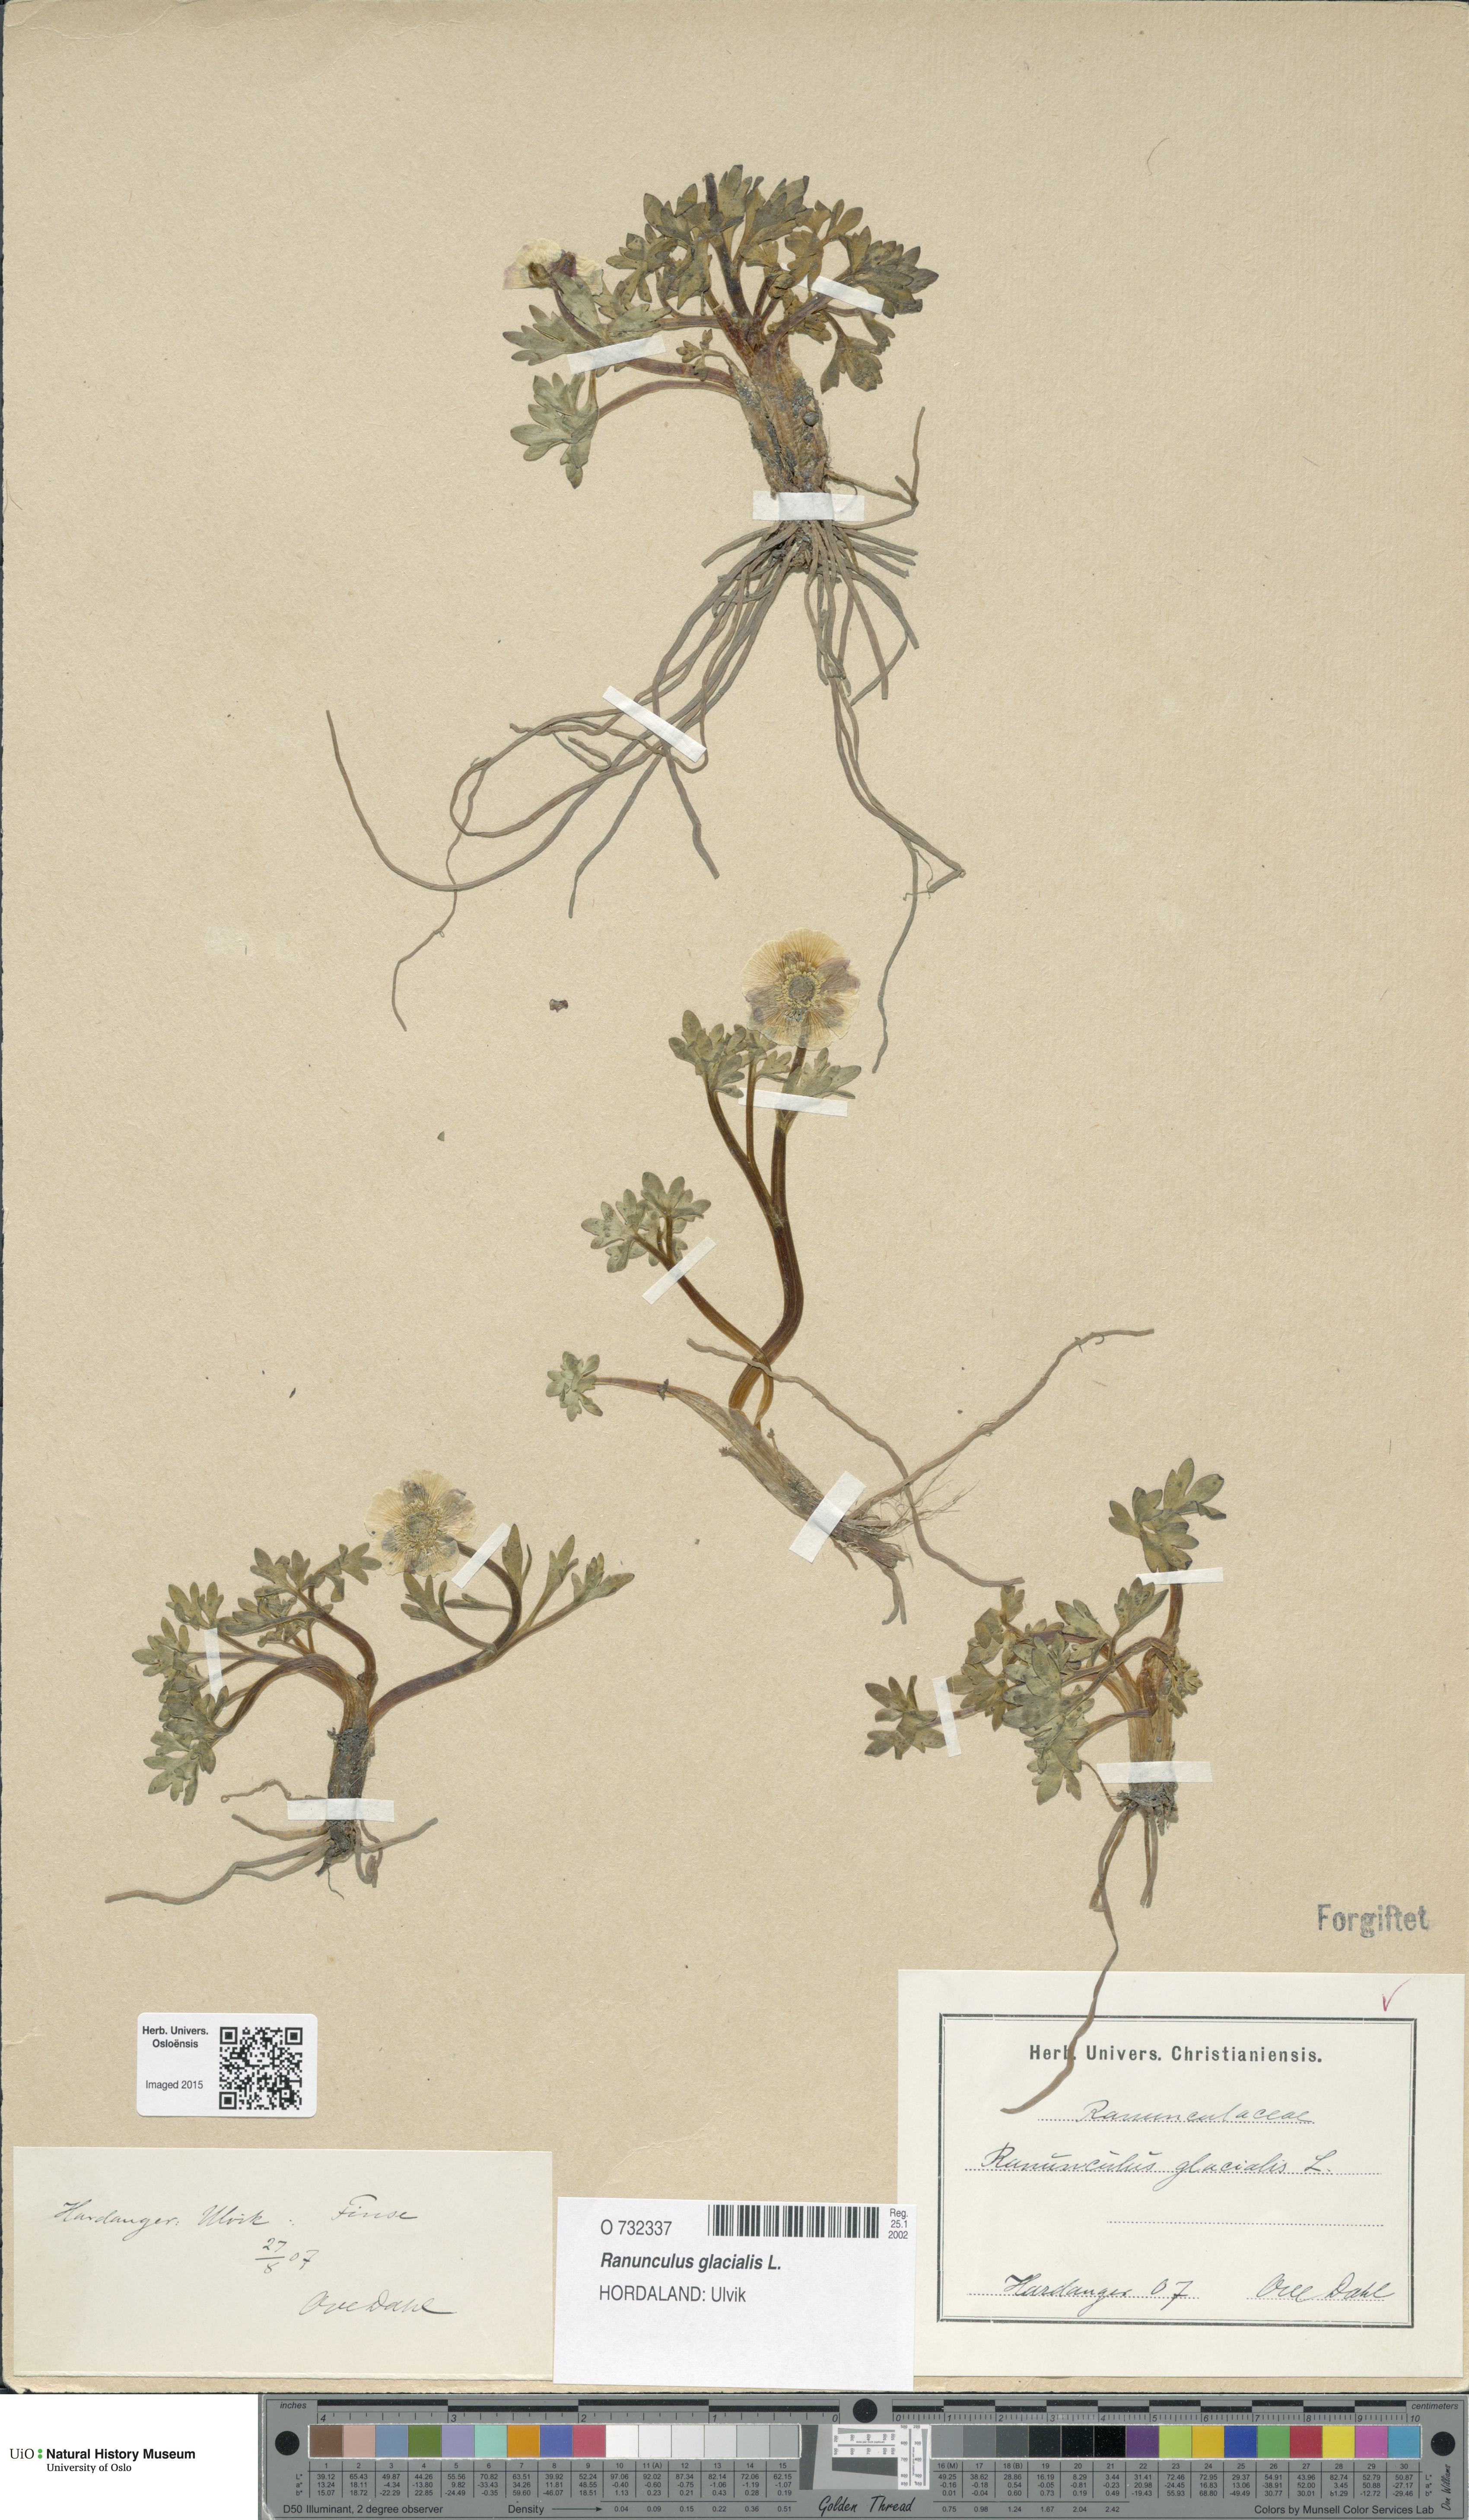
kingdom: Plantae
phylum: Tracheophyta
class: Magnoliopsida
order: Ranunculales
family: Ranunculaceae
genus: Ranunculus
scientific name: Ranunculus glacialis
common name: Glacier buttercup
